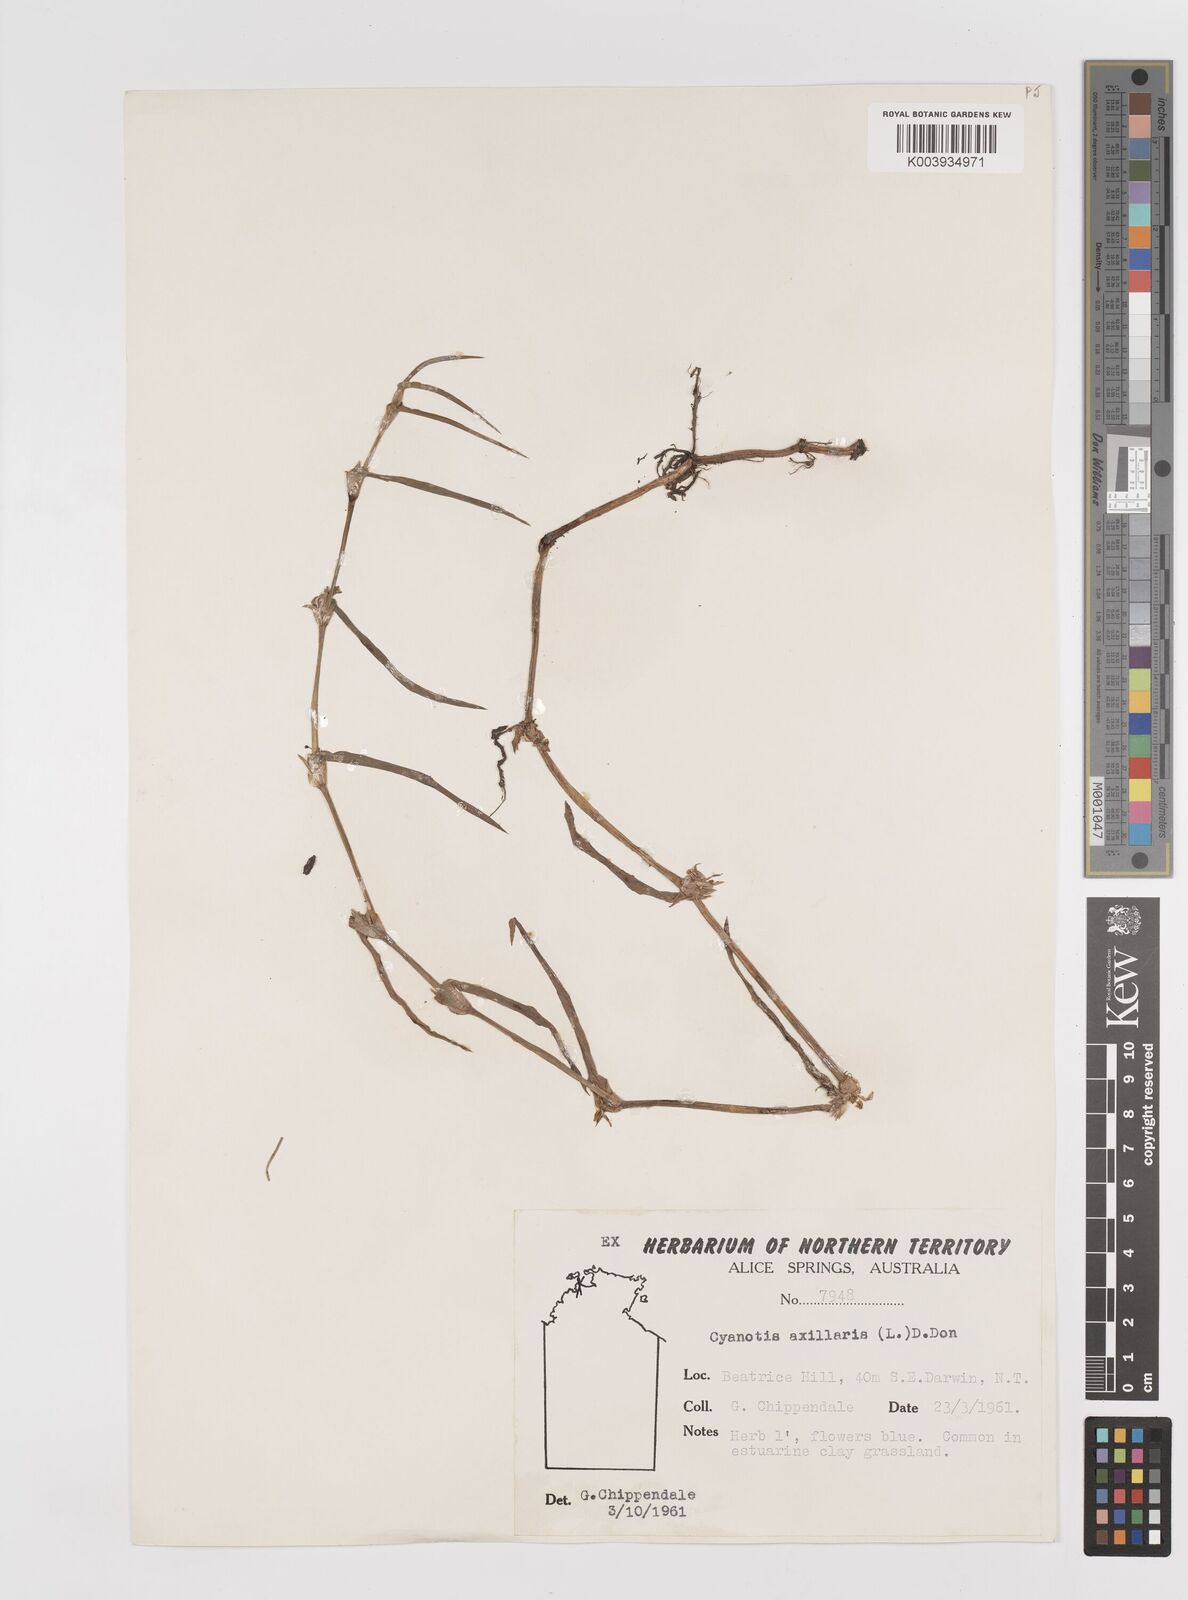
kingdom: Plantae
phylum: Tracheophyta
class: Liliopsida
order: Commelinales
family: Commelinaceae
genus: Cyanotis
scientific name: Cyanotis axillaris
